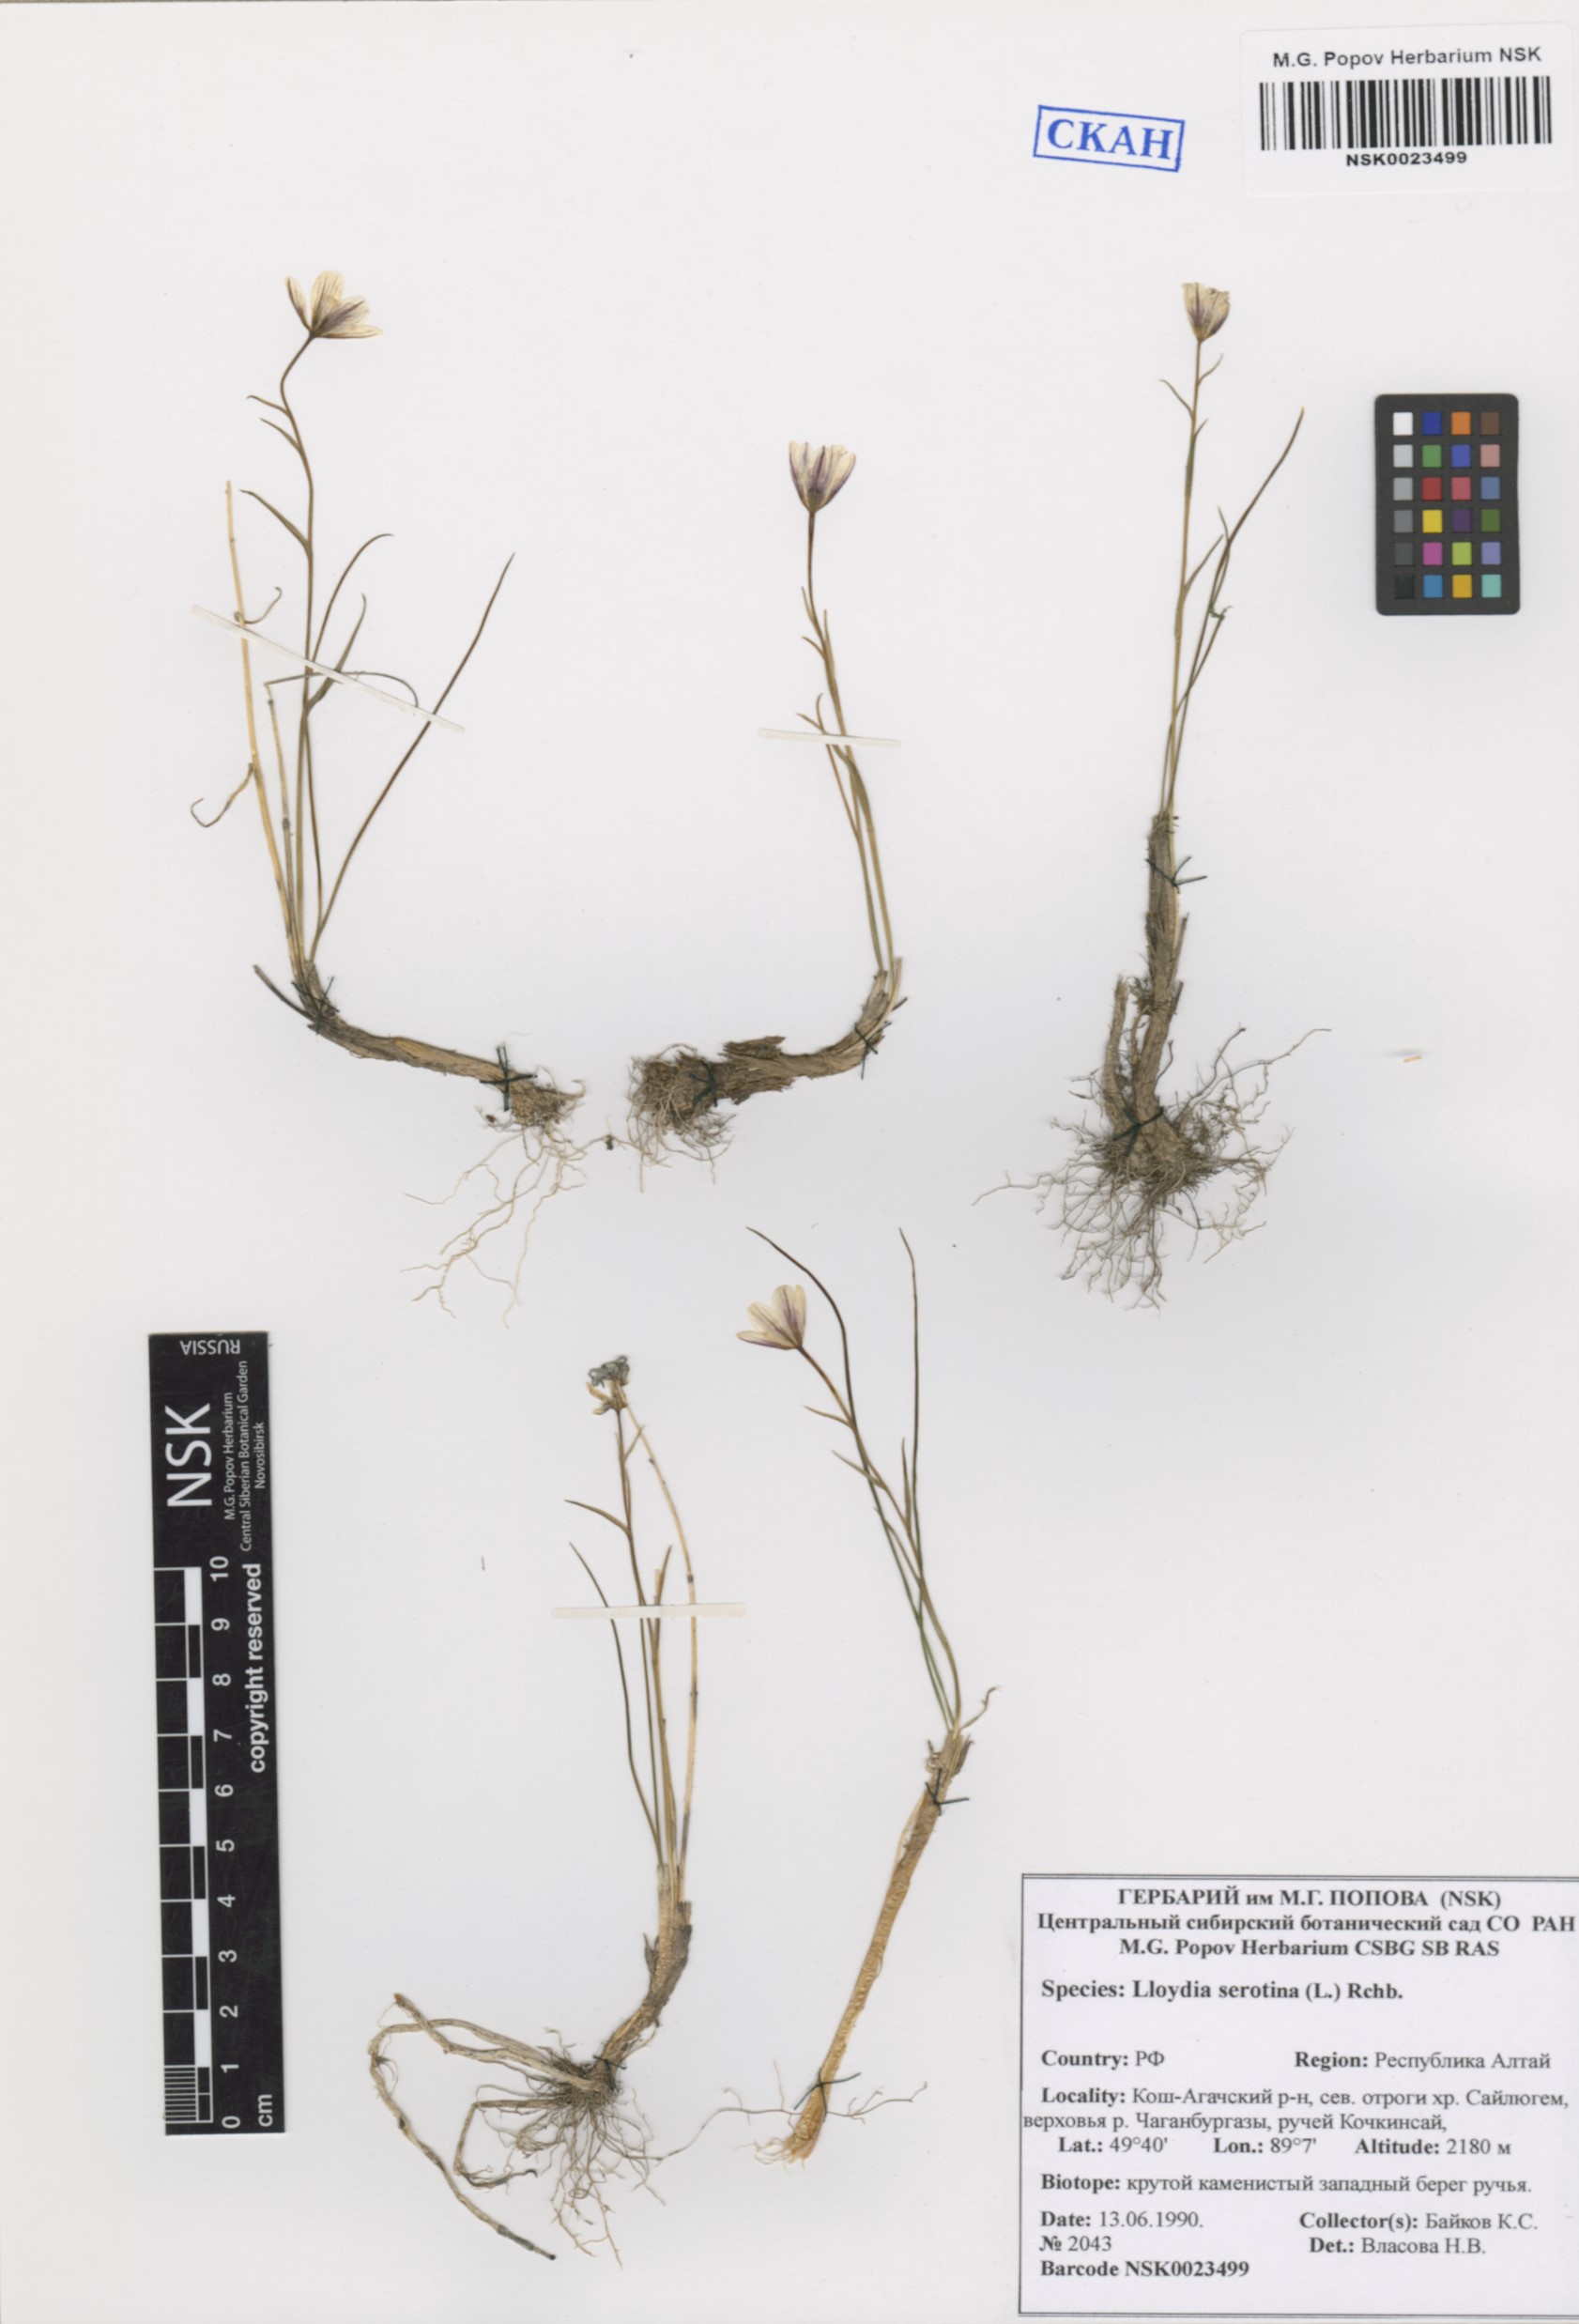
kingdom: Plantae
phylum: Tracheophyta
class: Liliopsida
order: Liliales
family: Liliaceae
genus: Gagea
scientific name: Gagea serotina
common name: Snowdon lily
